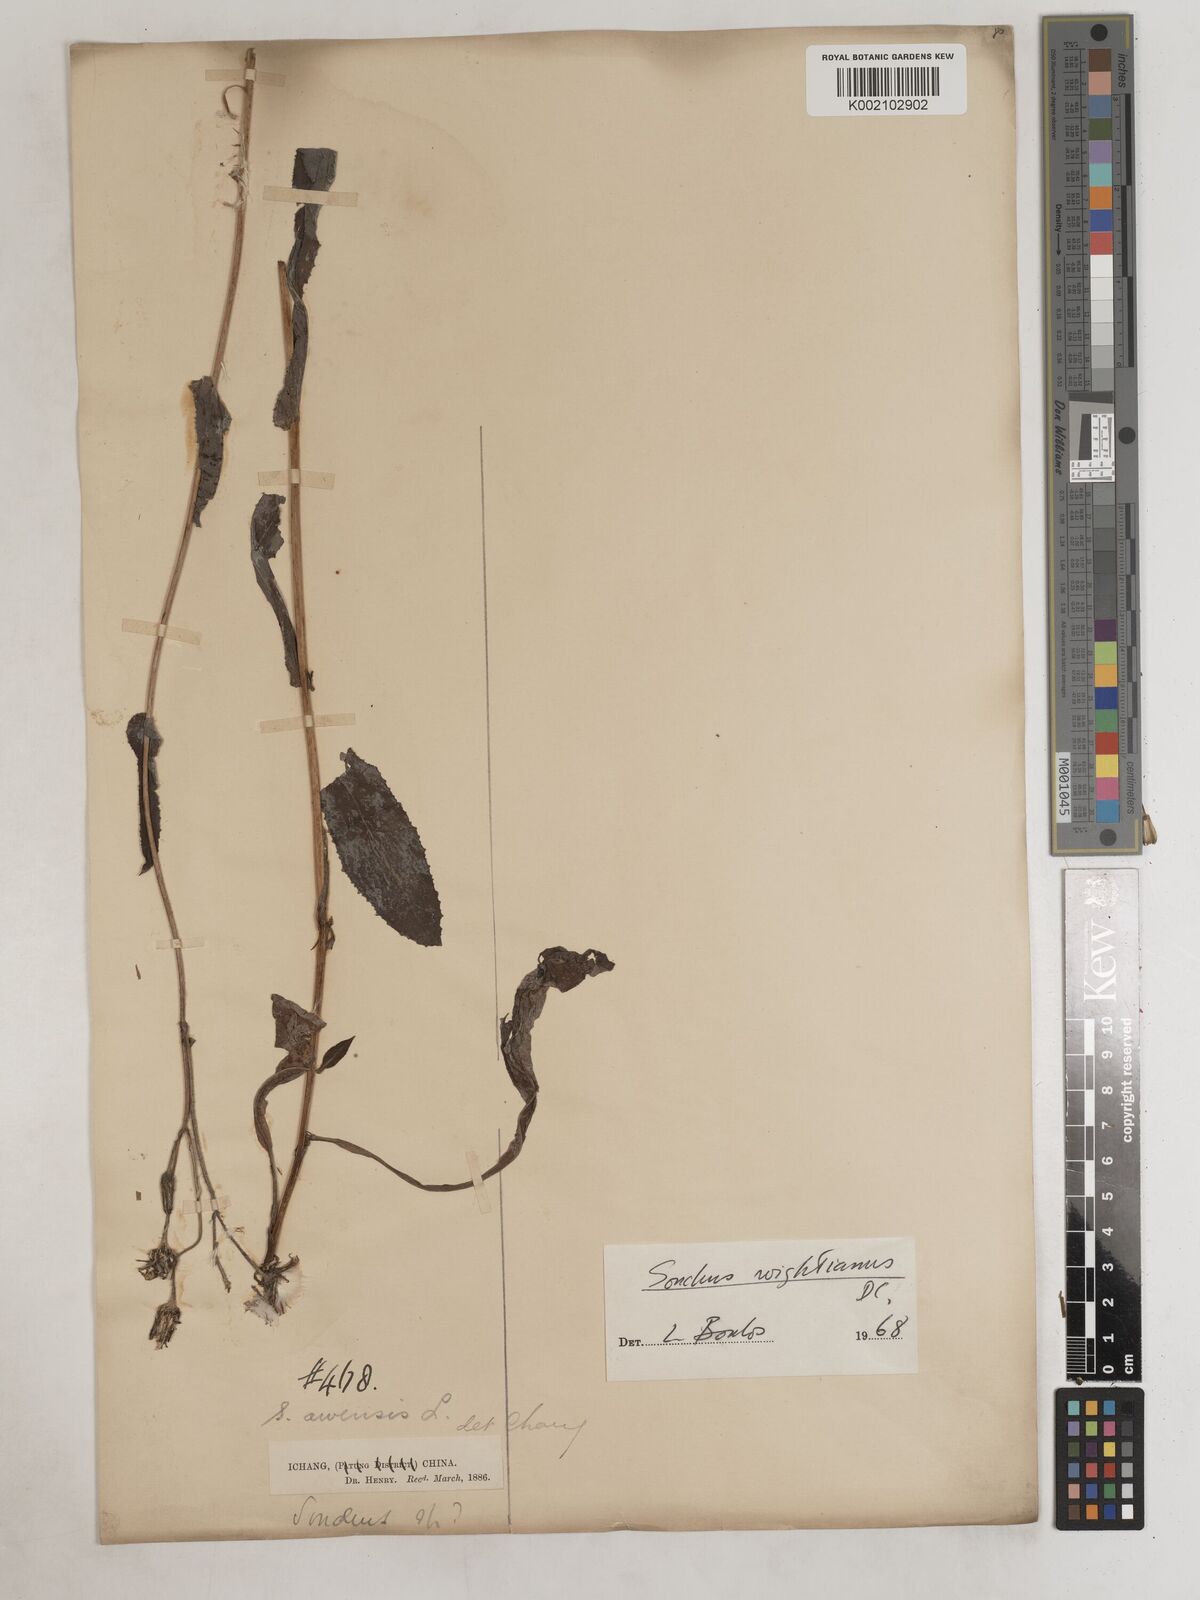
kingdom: Plantae
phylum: Tracheophyta
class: Magnoliopsida
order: Asterales
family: Asteraceae
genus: Sonchus
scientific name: Sonchus wightianus
